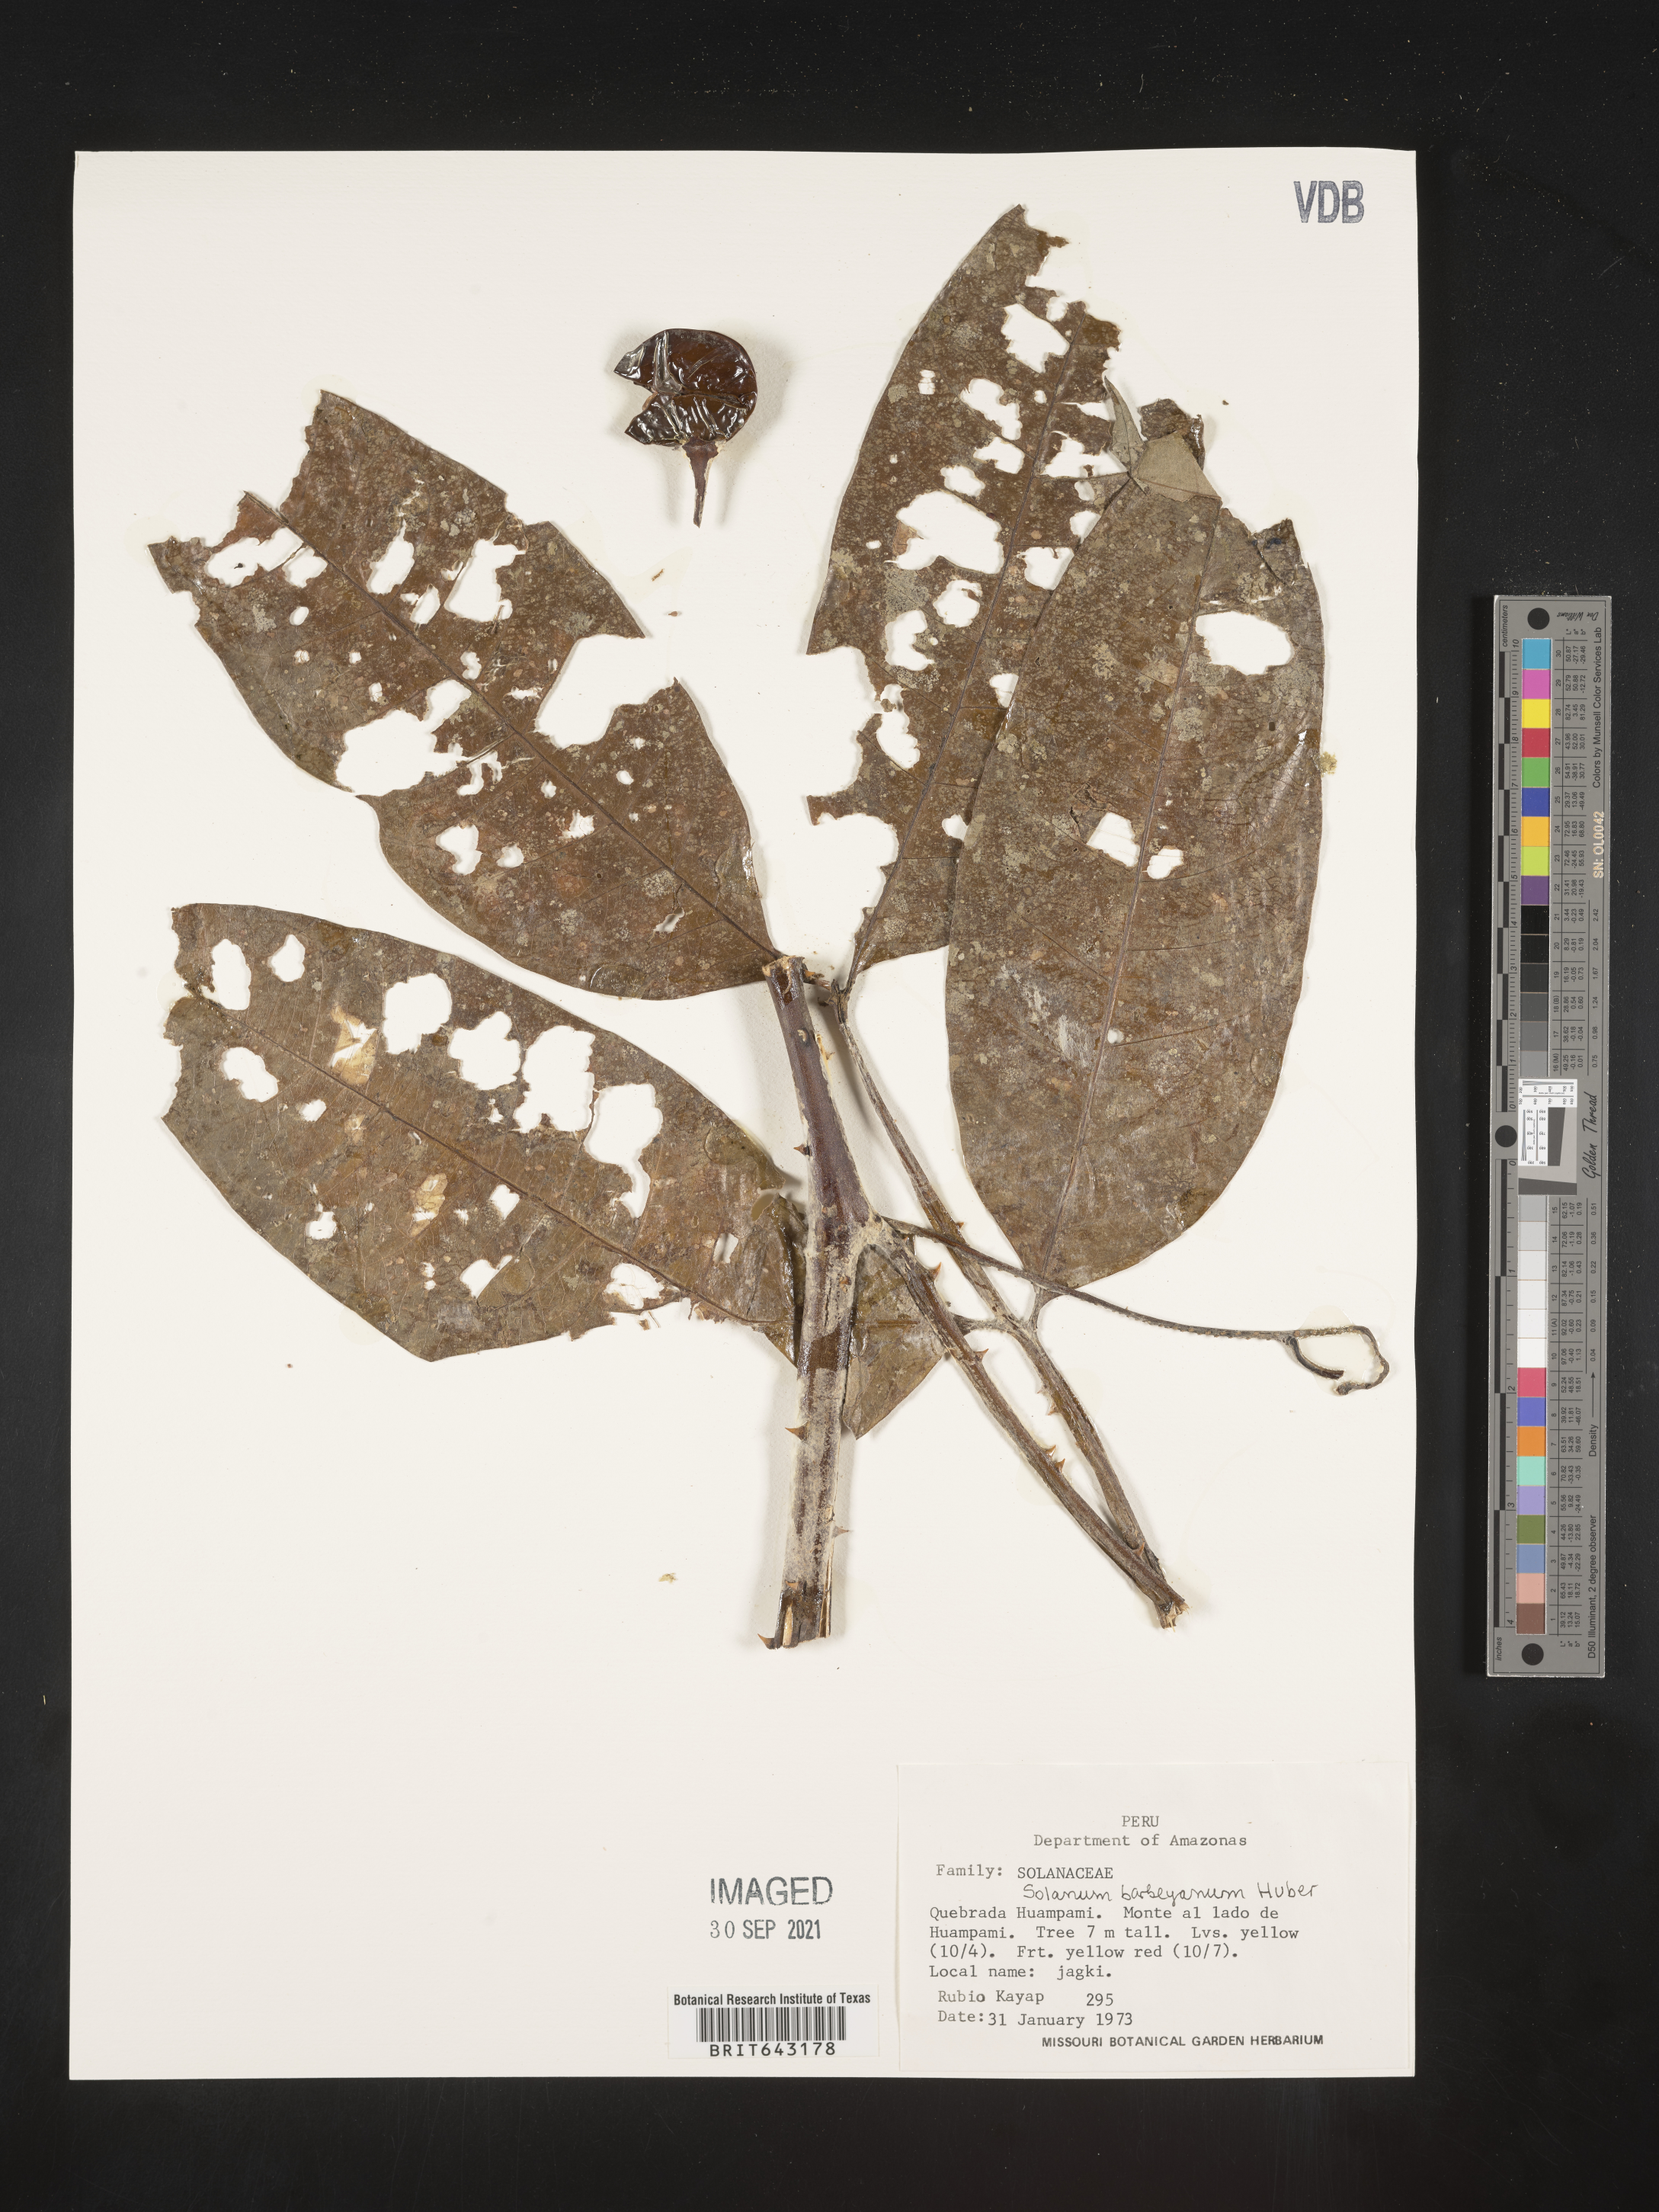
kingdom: Plantae
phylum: Tracheophyta
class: Magnoliopsida
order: Solanales
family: Solanaceae
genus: Solanum
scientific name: Solanum
